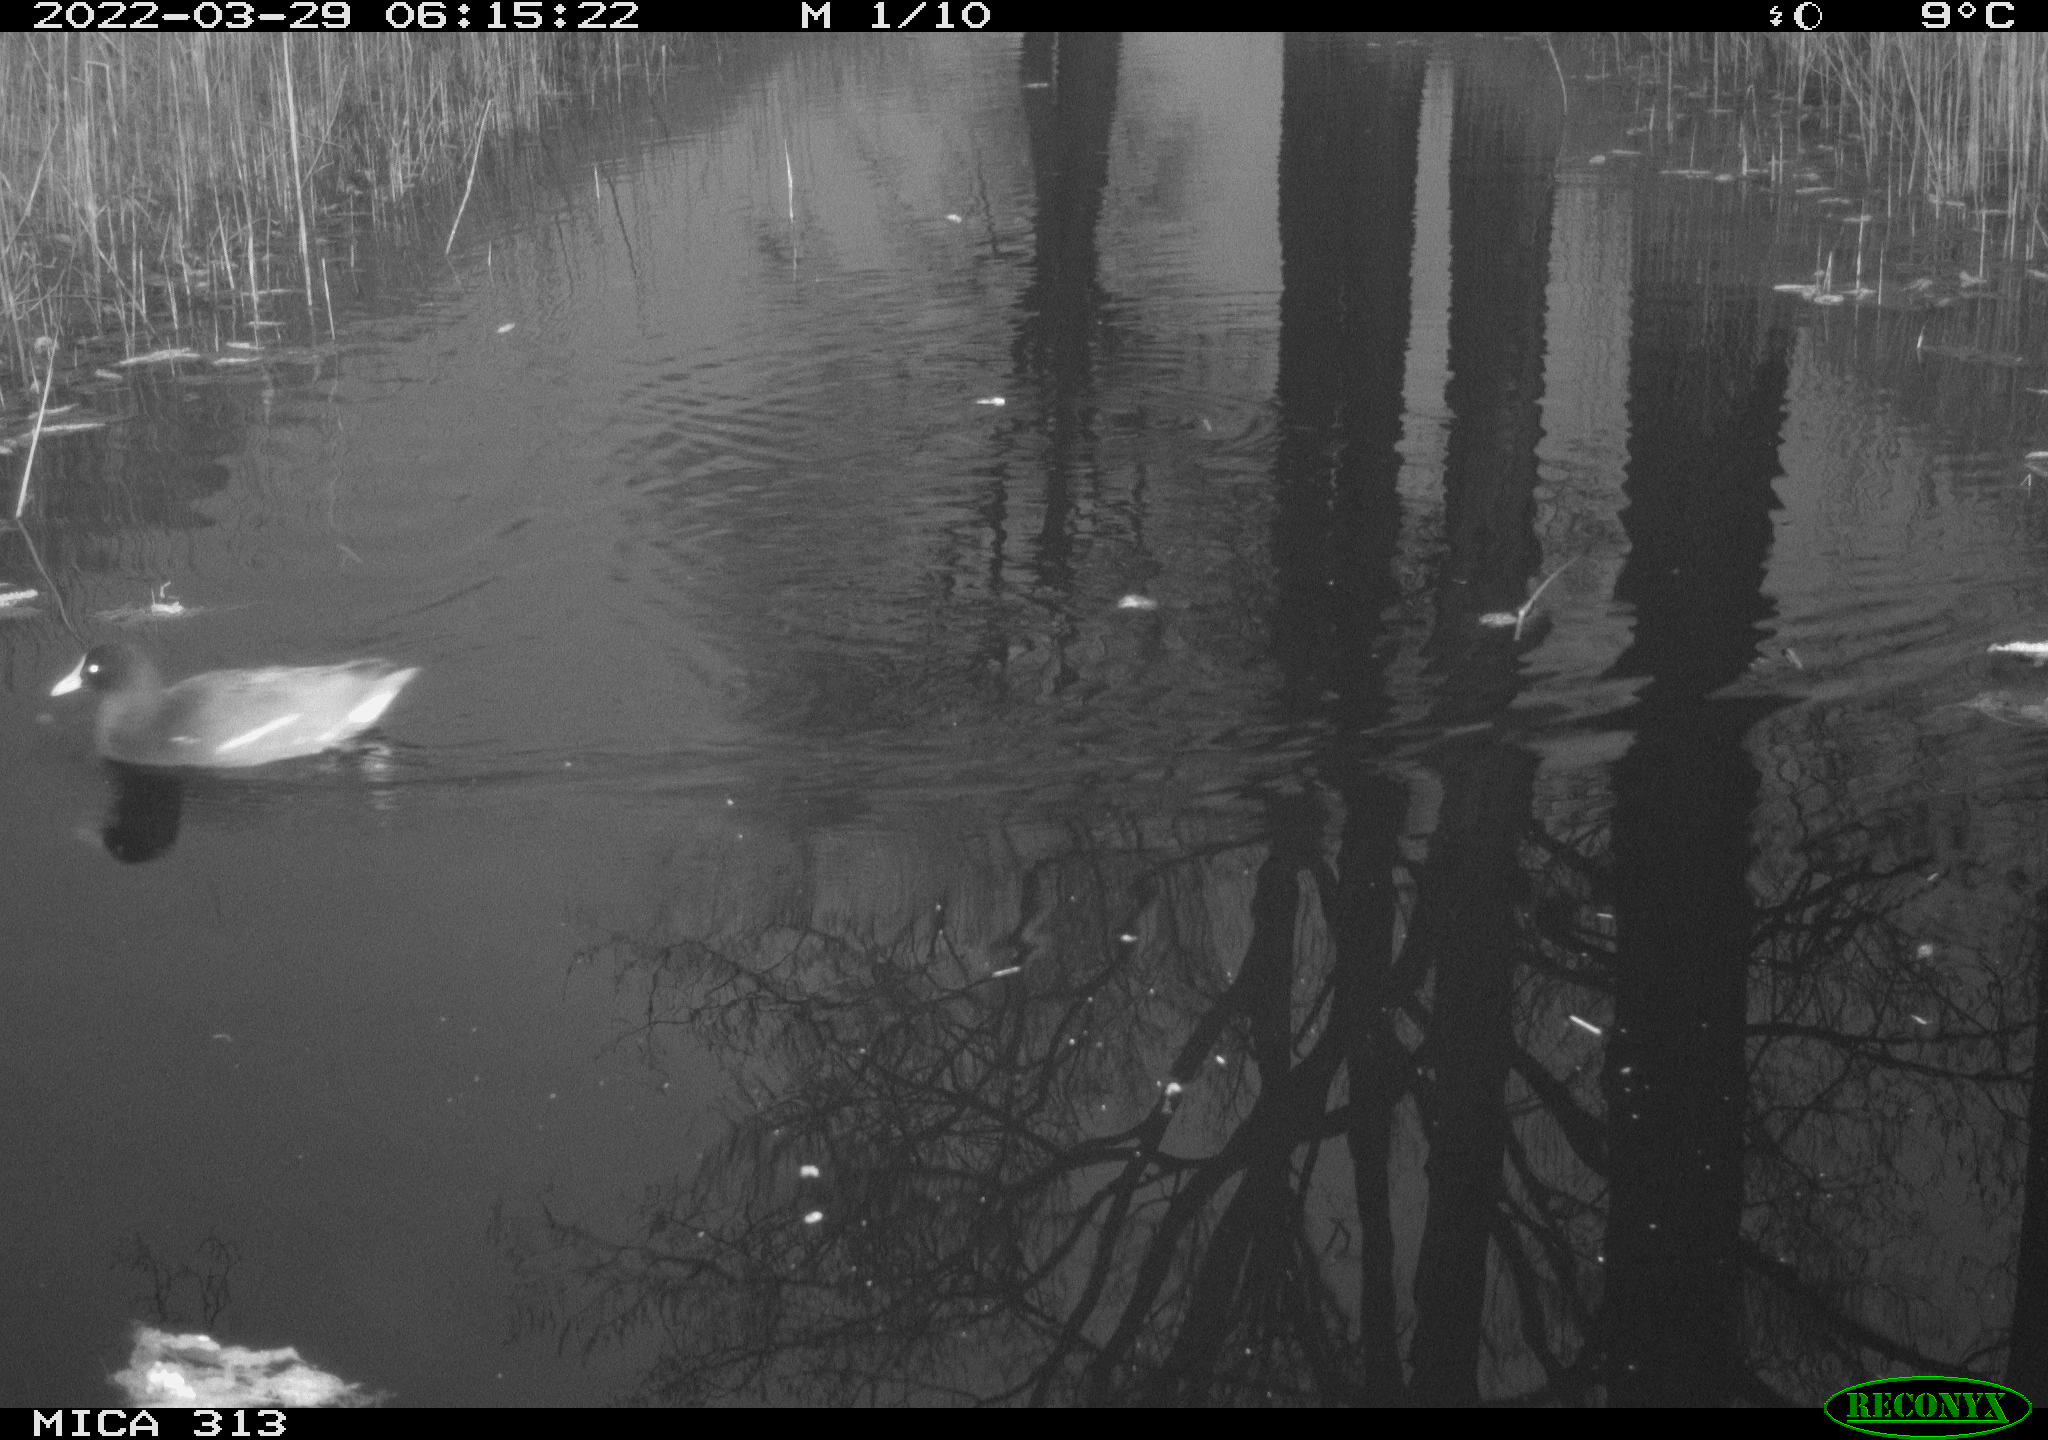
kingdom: Animalia
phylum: Chordata
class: Aves
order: Gruiformes
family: Rallidae
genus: Gallinula
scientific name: Gallinula chloropus
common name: Common moorhen
